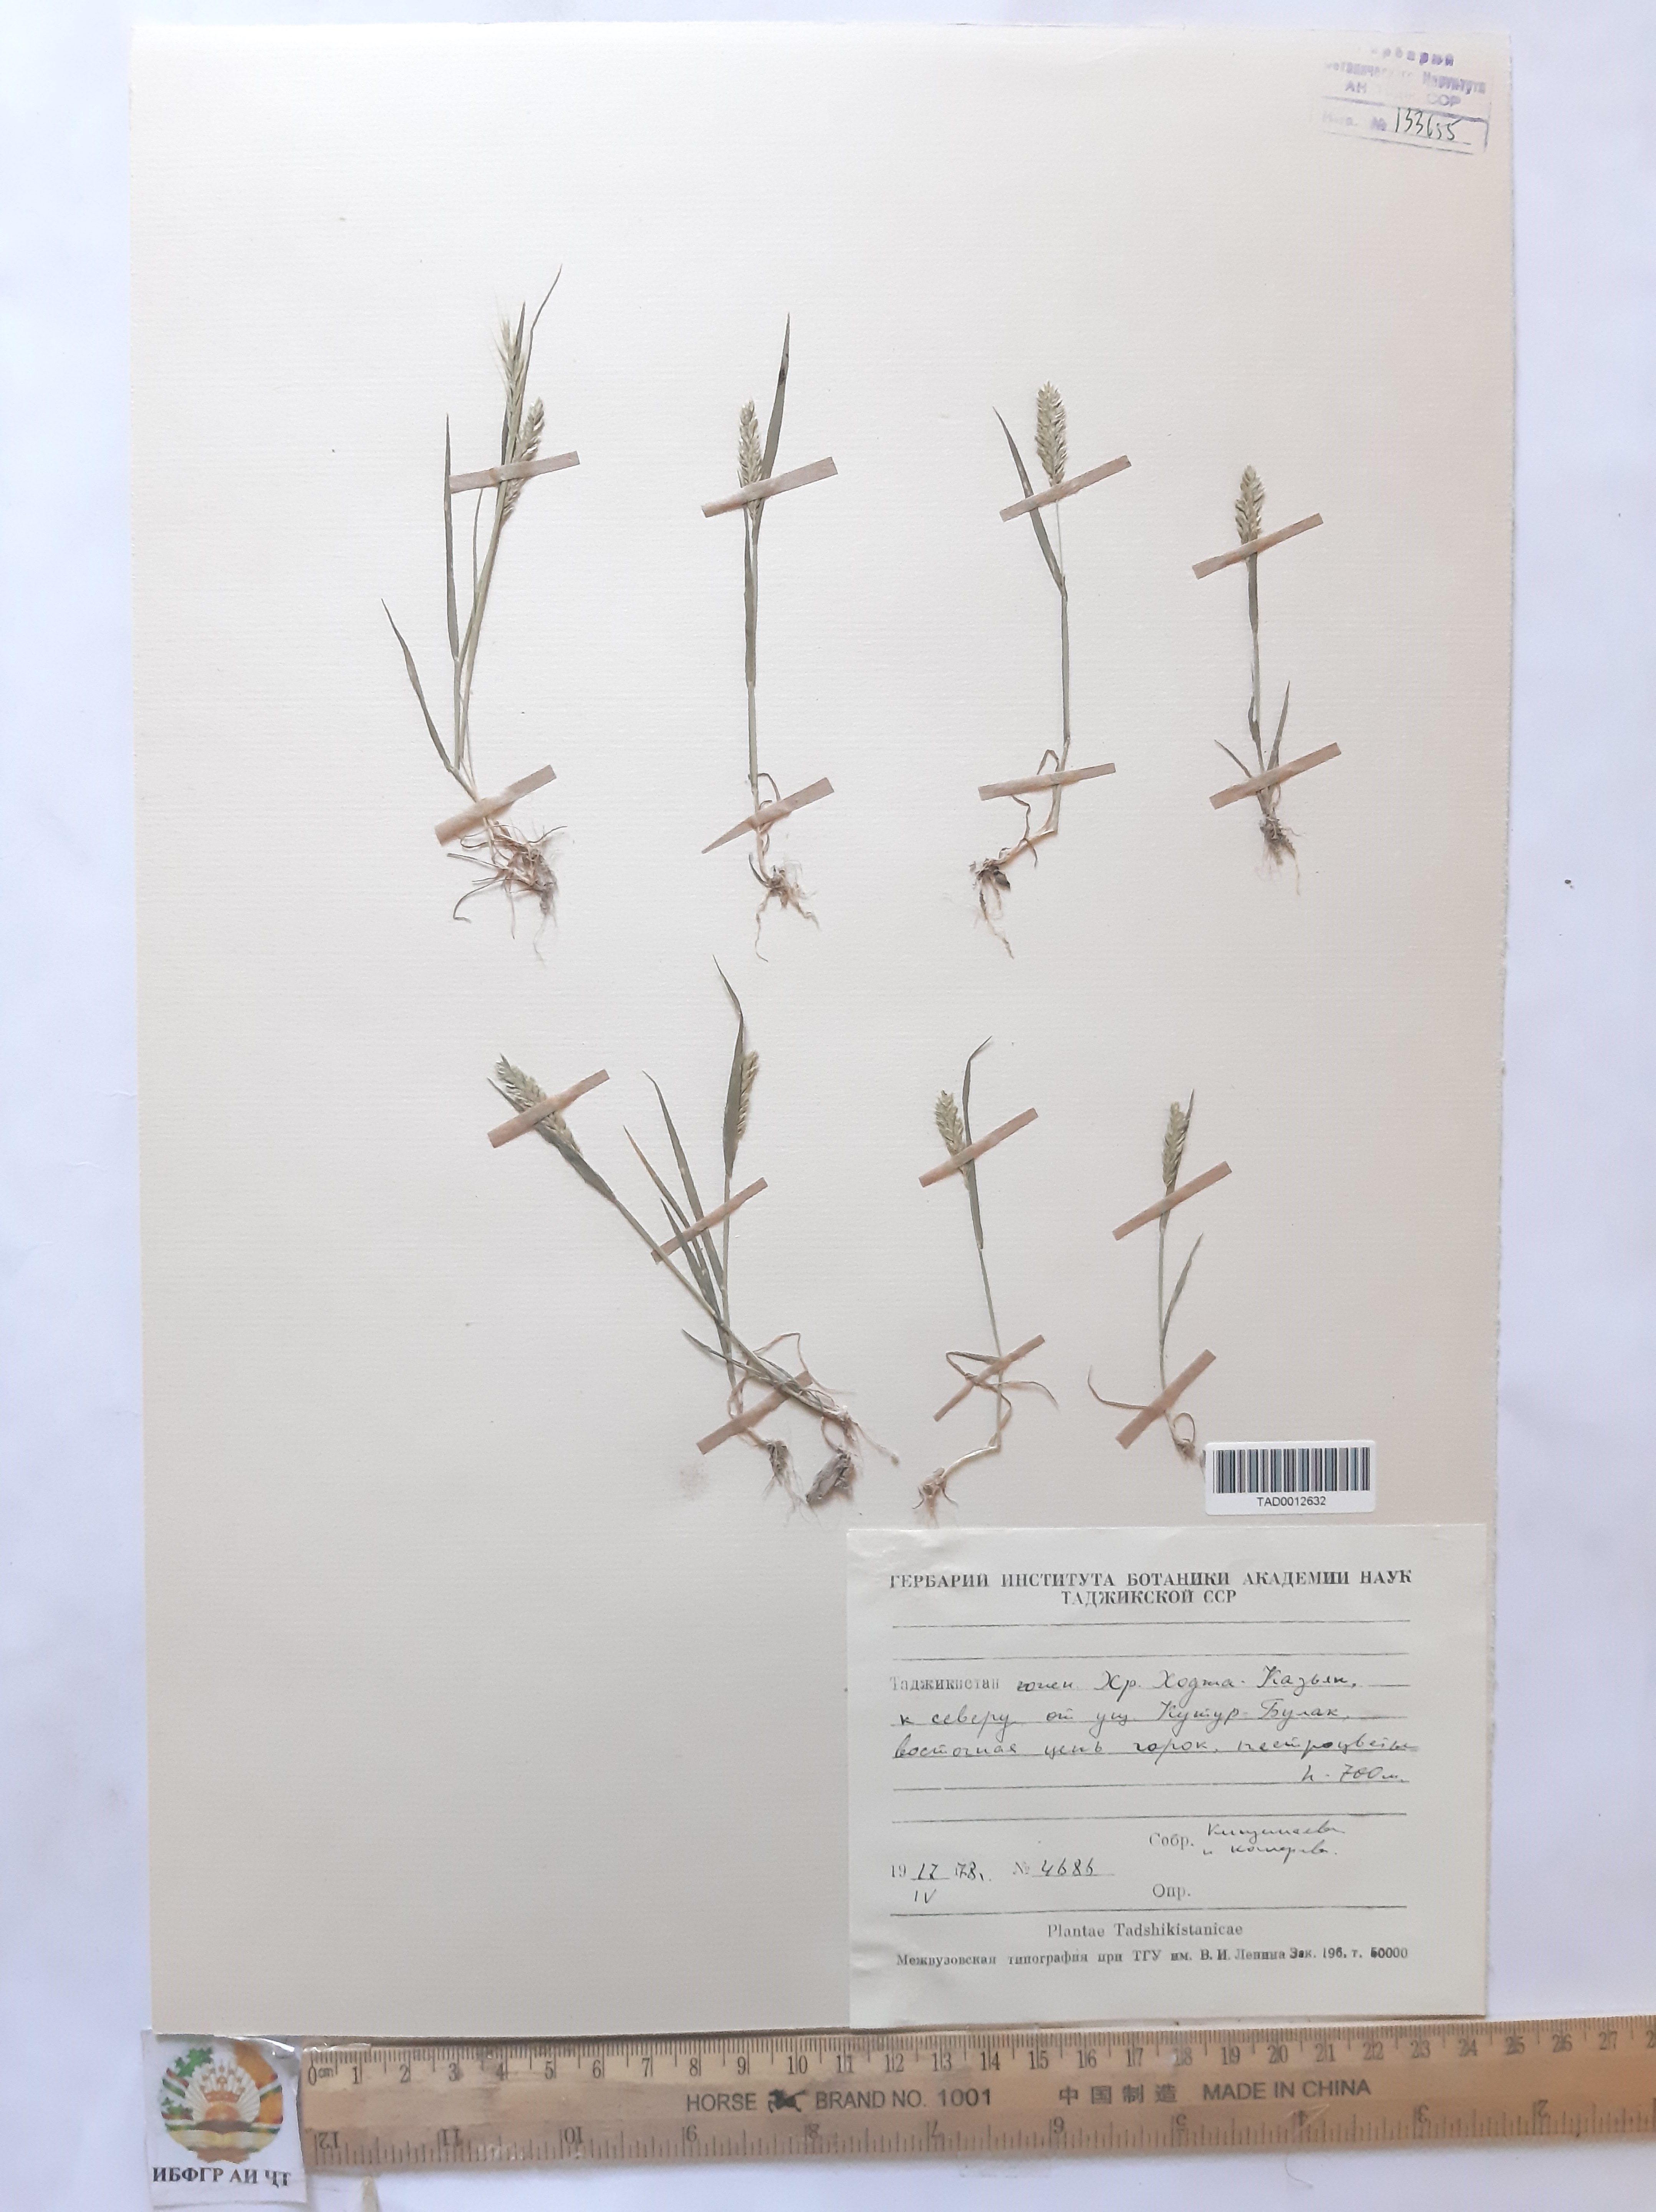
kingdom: Plantae
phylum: Tracheophyta
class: Liliopsida
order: Poales
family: Poaceae
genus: Rostraria
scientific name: Rostraria cristata
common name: Mediterranean hair-grass
